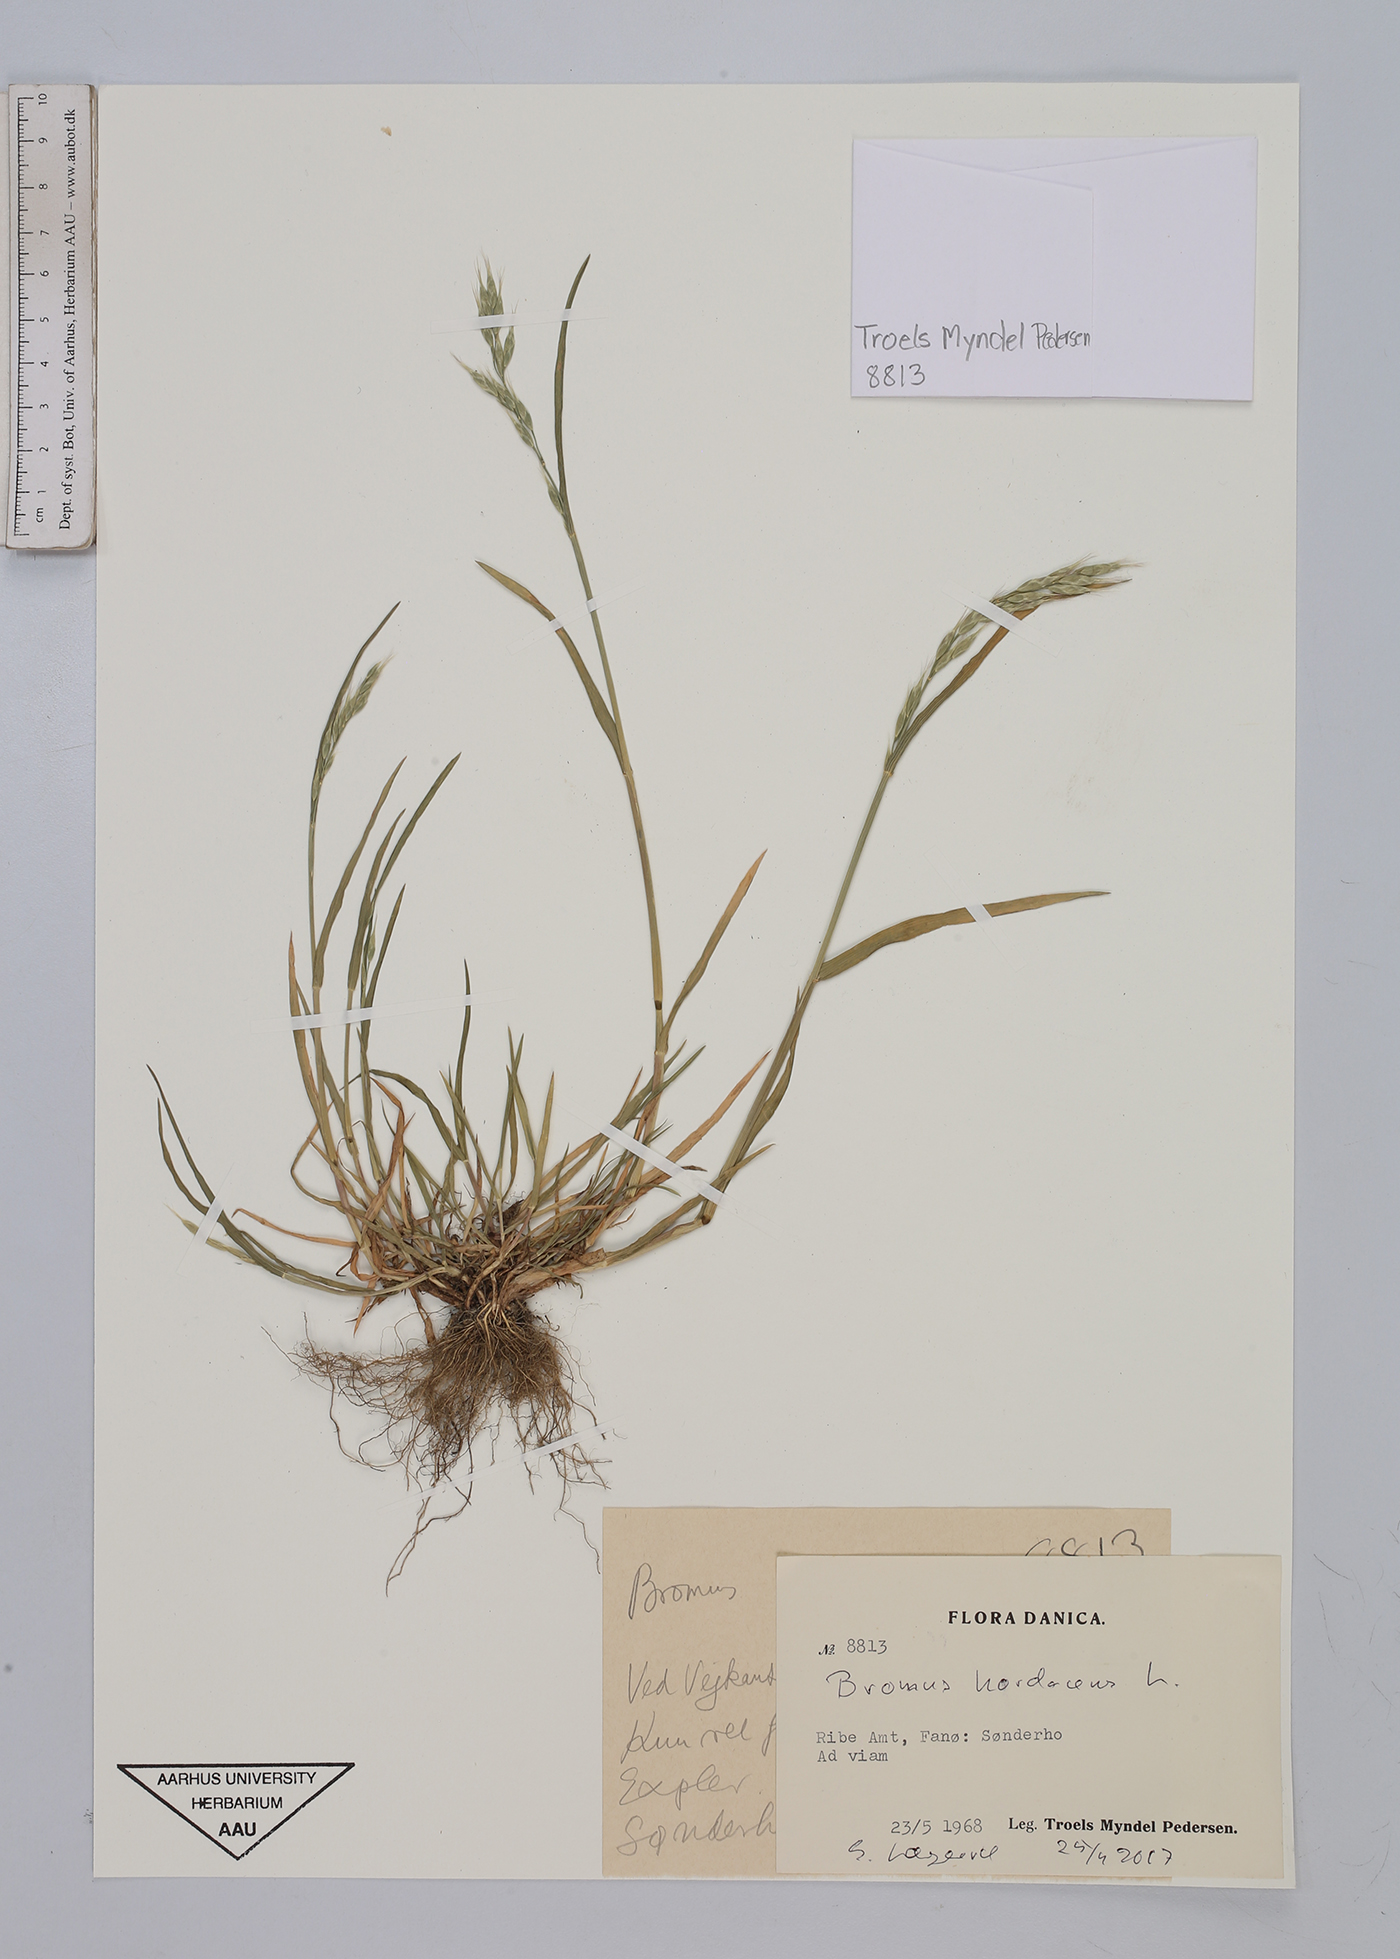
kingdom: Plantae
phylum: Tracheophyta
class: Liliopsida
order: Poales
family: Poaceae
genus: Bromus
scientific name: Bromus hordeaceus
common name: Soft brome
